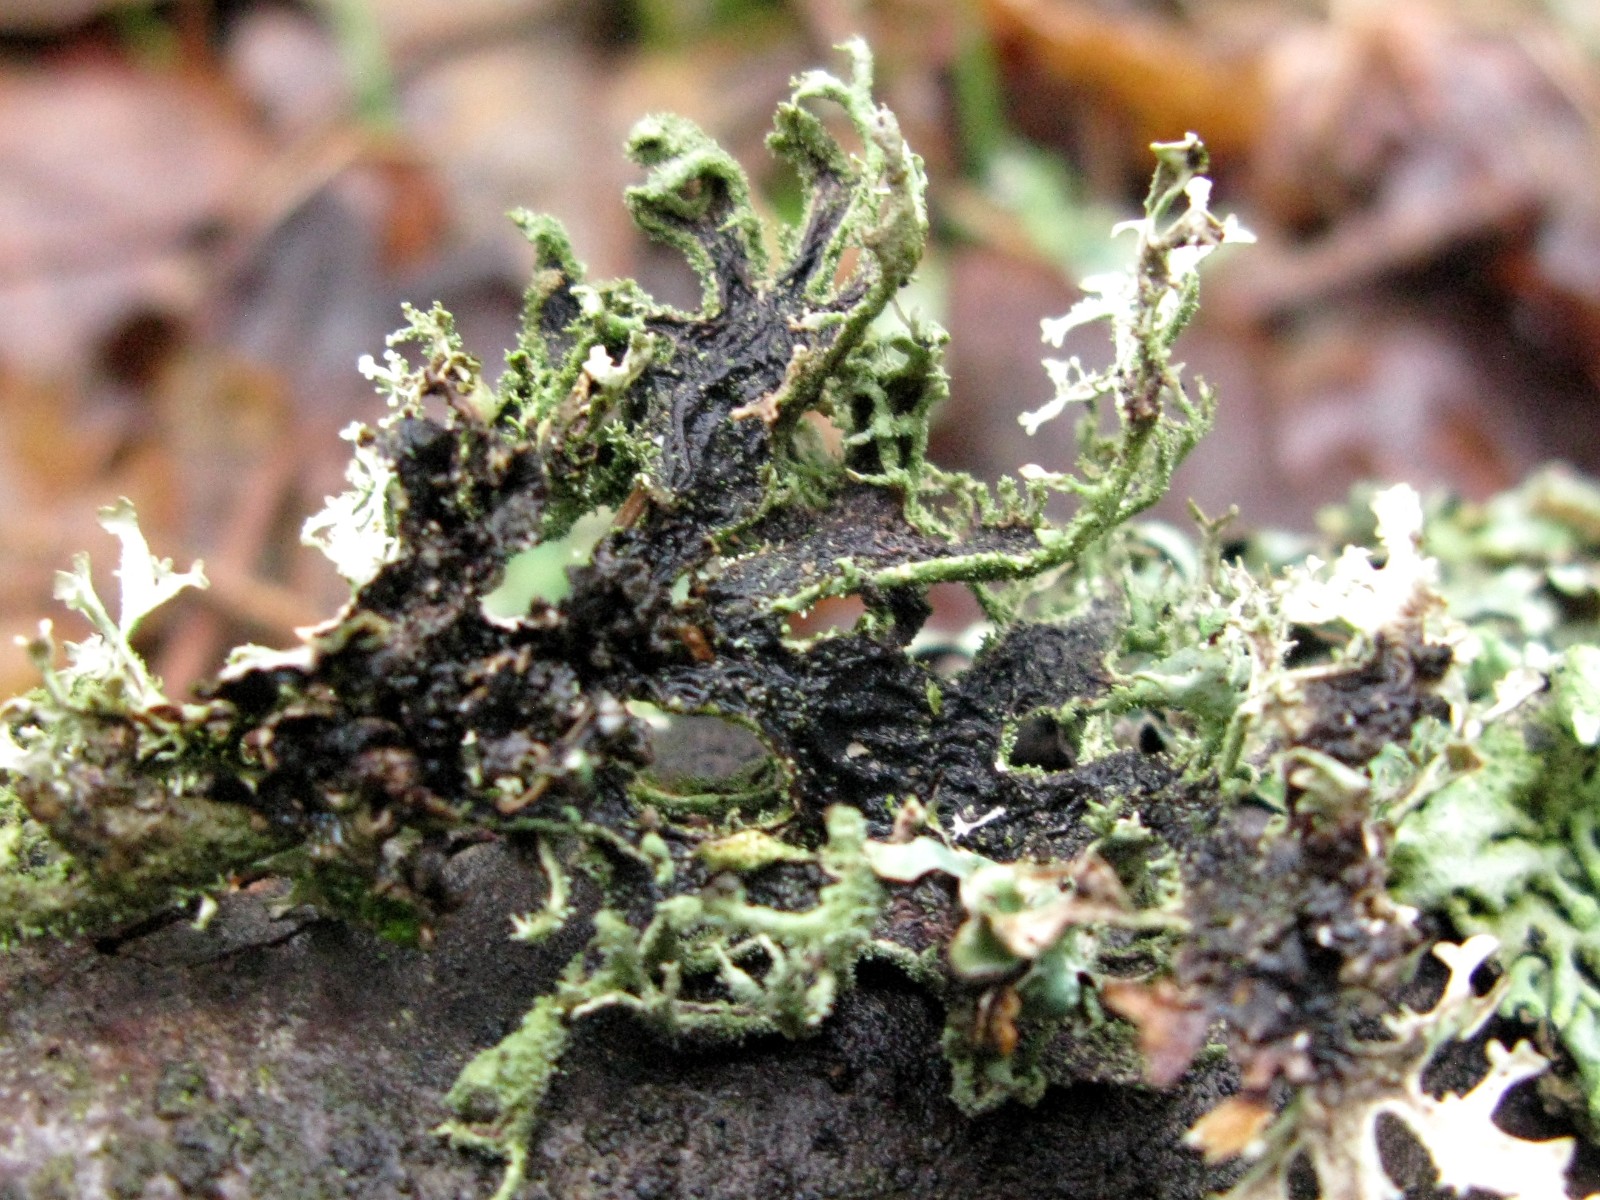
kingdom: Fungi
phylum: Ascomycota
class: Lecanoromycetes
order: Lecanorales
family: Parmeliaceae
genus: Pseudevernia
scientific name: Pseudevernia furfuracea
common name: grå fyrrelav
